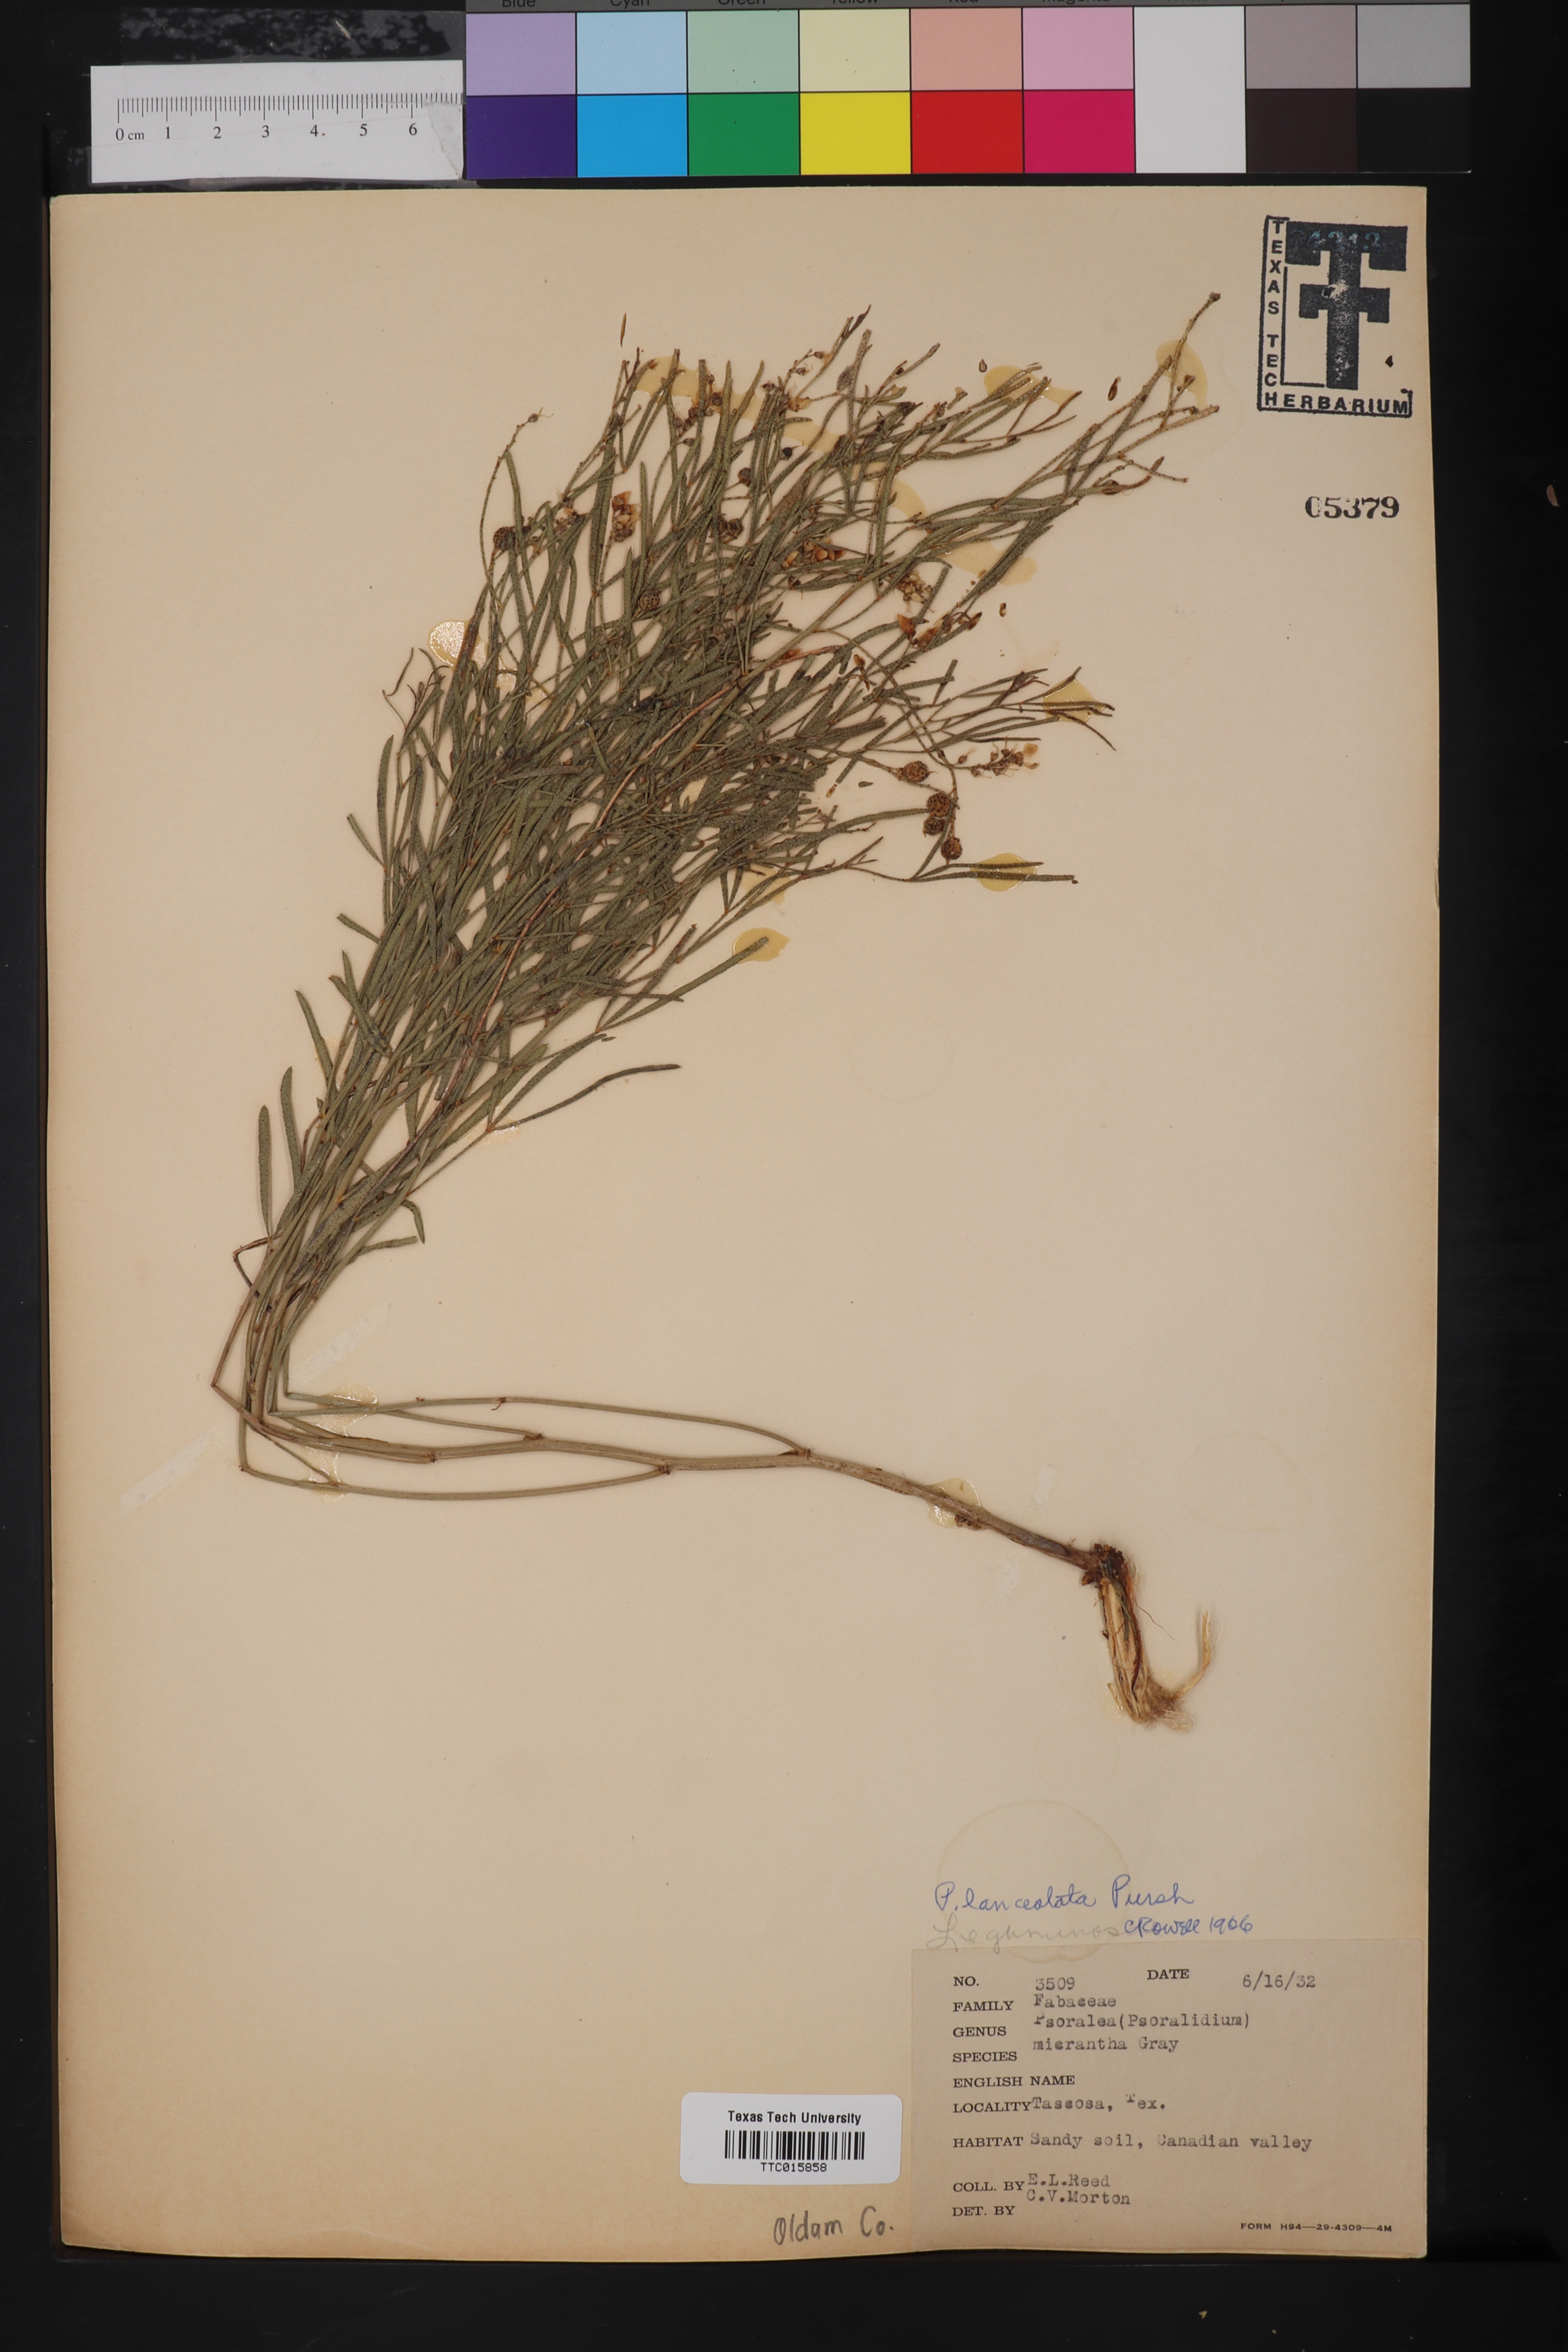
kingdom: Plantae
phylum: Tracheophyta
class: Magnoliopsida
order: Fabales
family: Fabaceae
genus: Ladeania
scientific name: Ladeania lanceolata
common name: Dune scurf-pea
